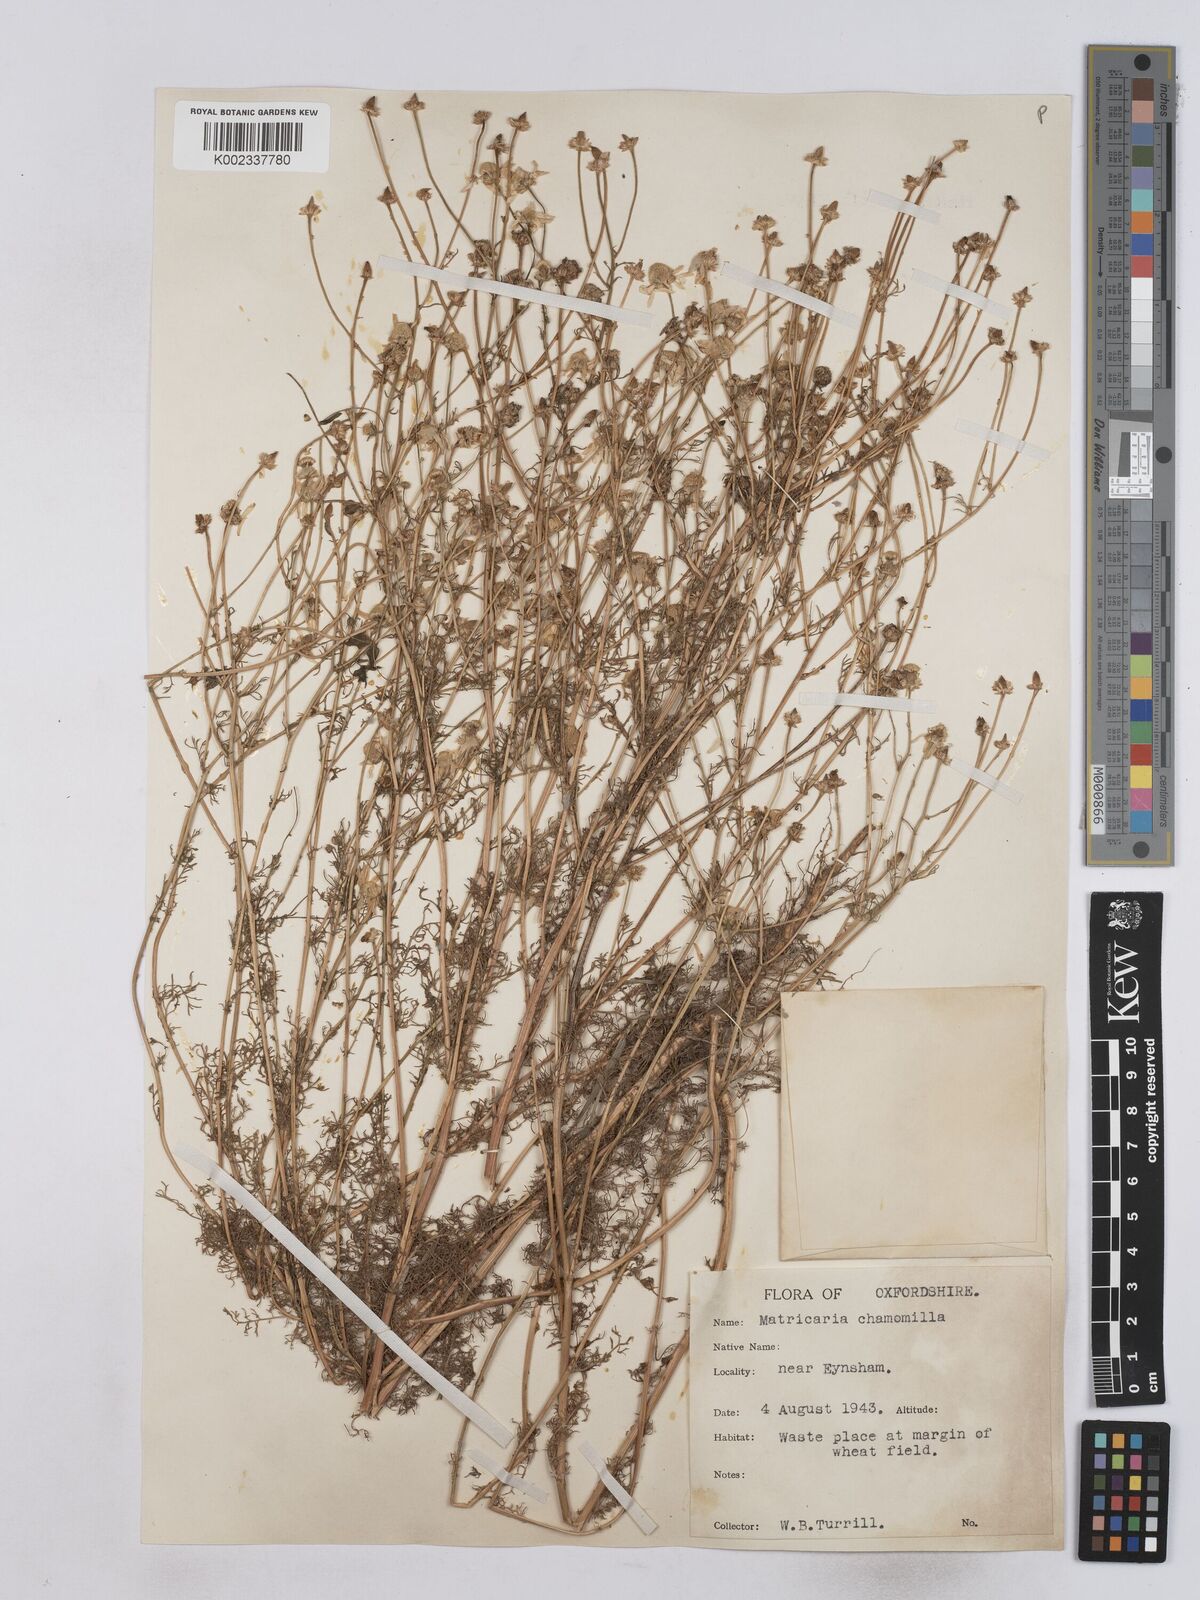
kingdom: Plantae
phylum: Tracheophyta
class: Magnoliopsida
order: Asterales
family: Asteraceae
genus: Matricaria
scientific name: Matricaria chamomilla
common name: Scented mayweed
